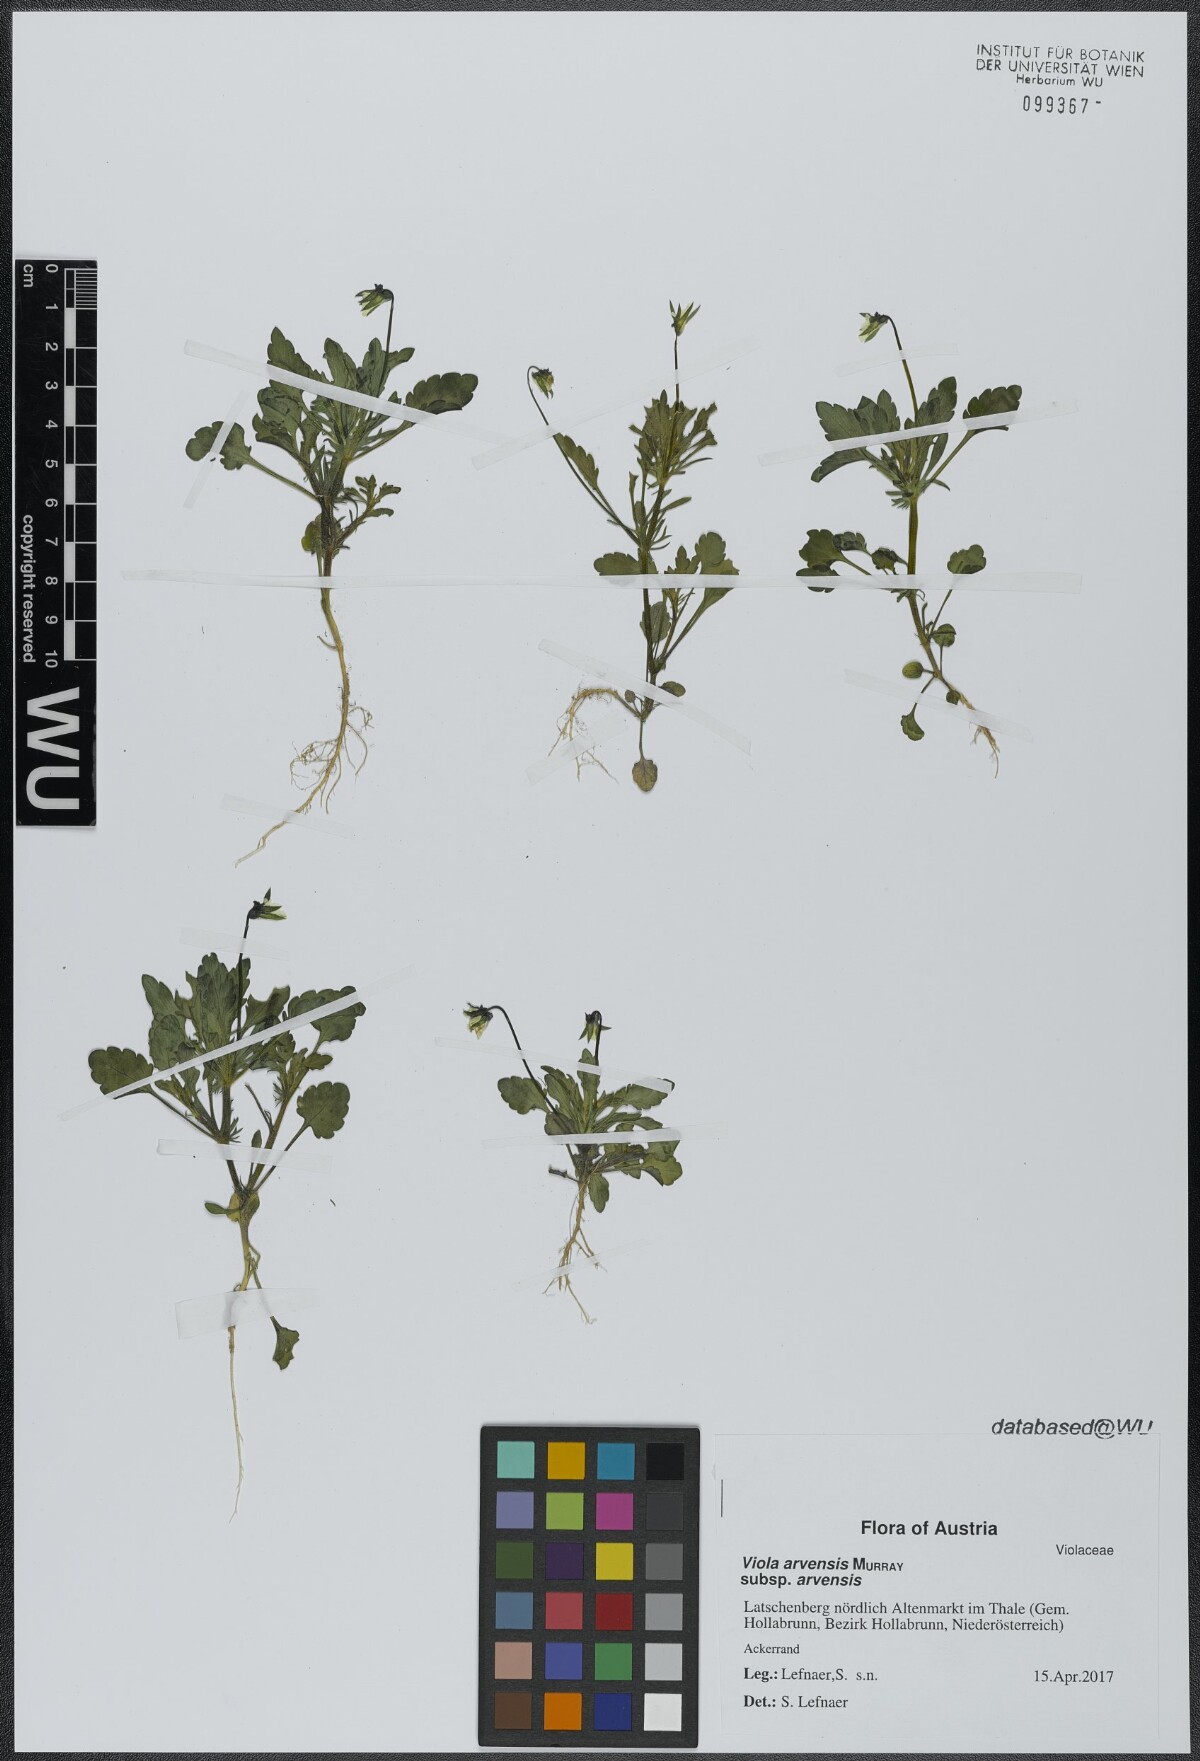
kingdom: Plantae
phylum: Tracheophyta
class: Magnoliopsida
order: Malpighiales
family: Violaceae
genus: Viola
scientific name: Viola arvensis
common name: Field pansy
